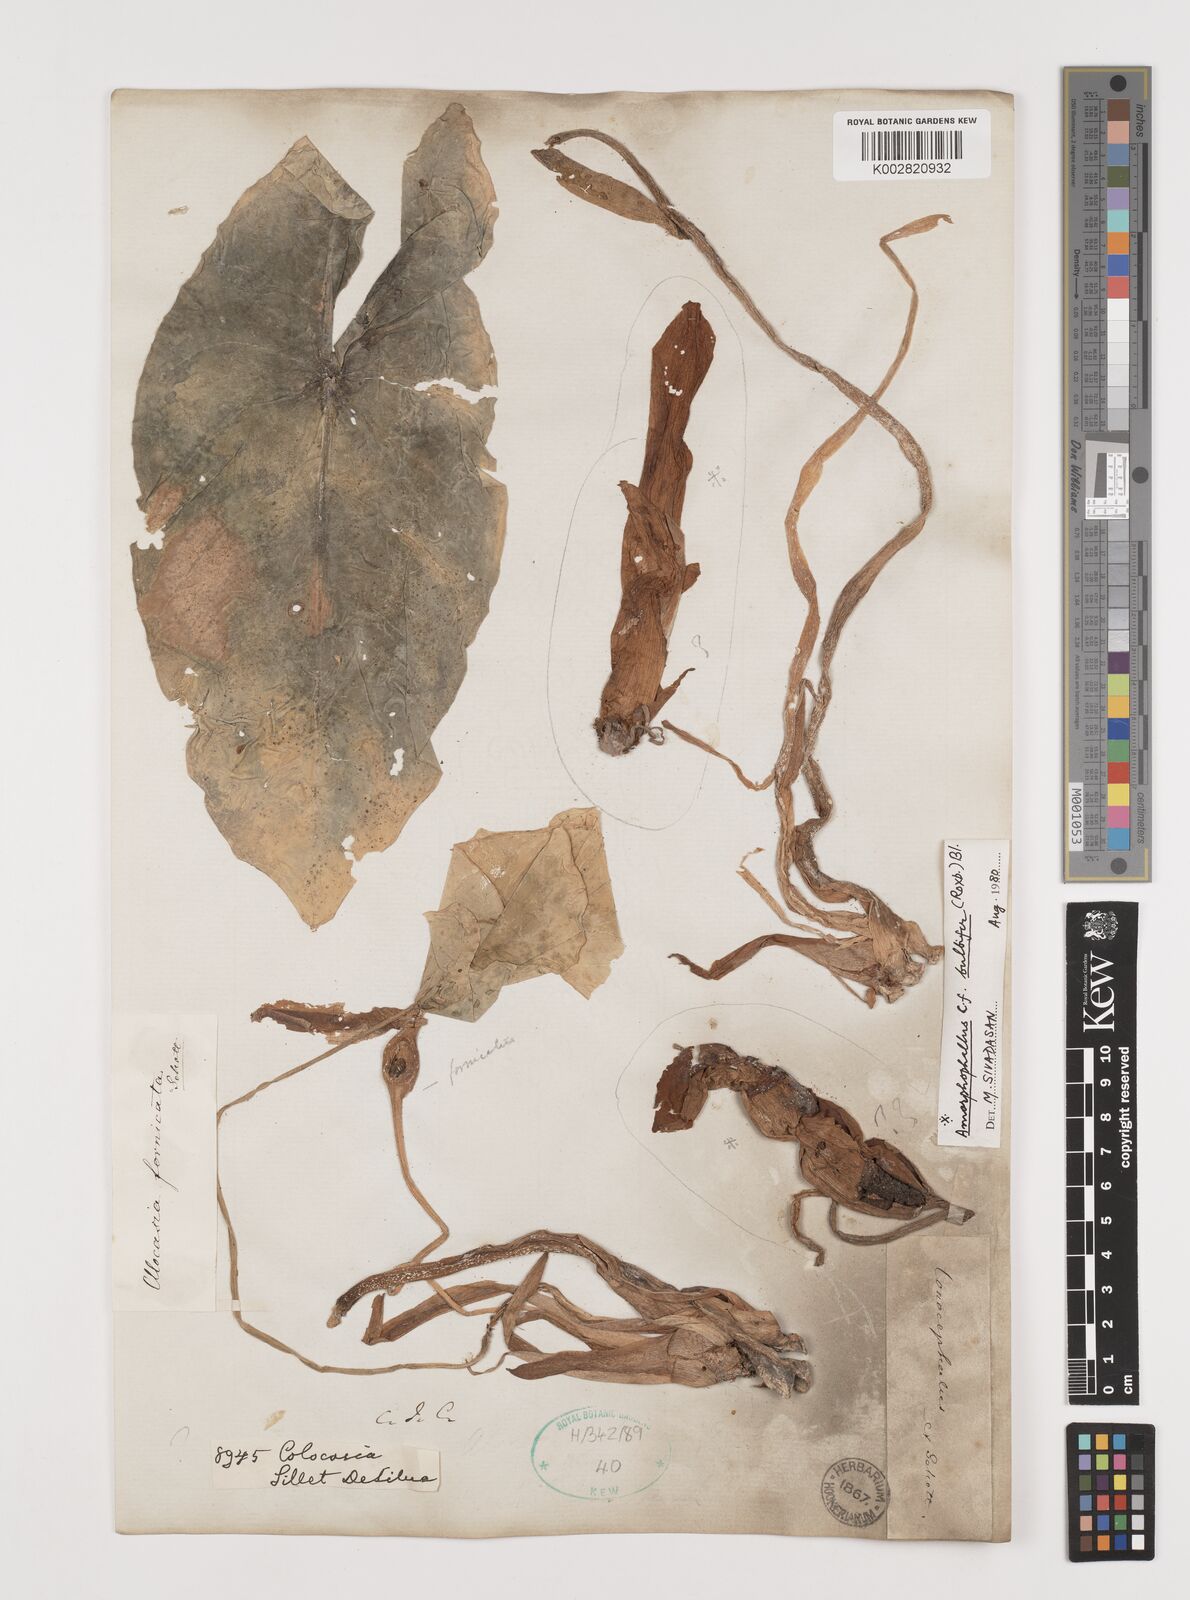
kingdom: Plantae
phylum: Tracheophyta
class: Liliopsida
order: Alismatales
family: Araceae
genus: Alocasia
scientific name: Alocasia fornicata
